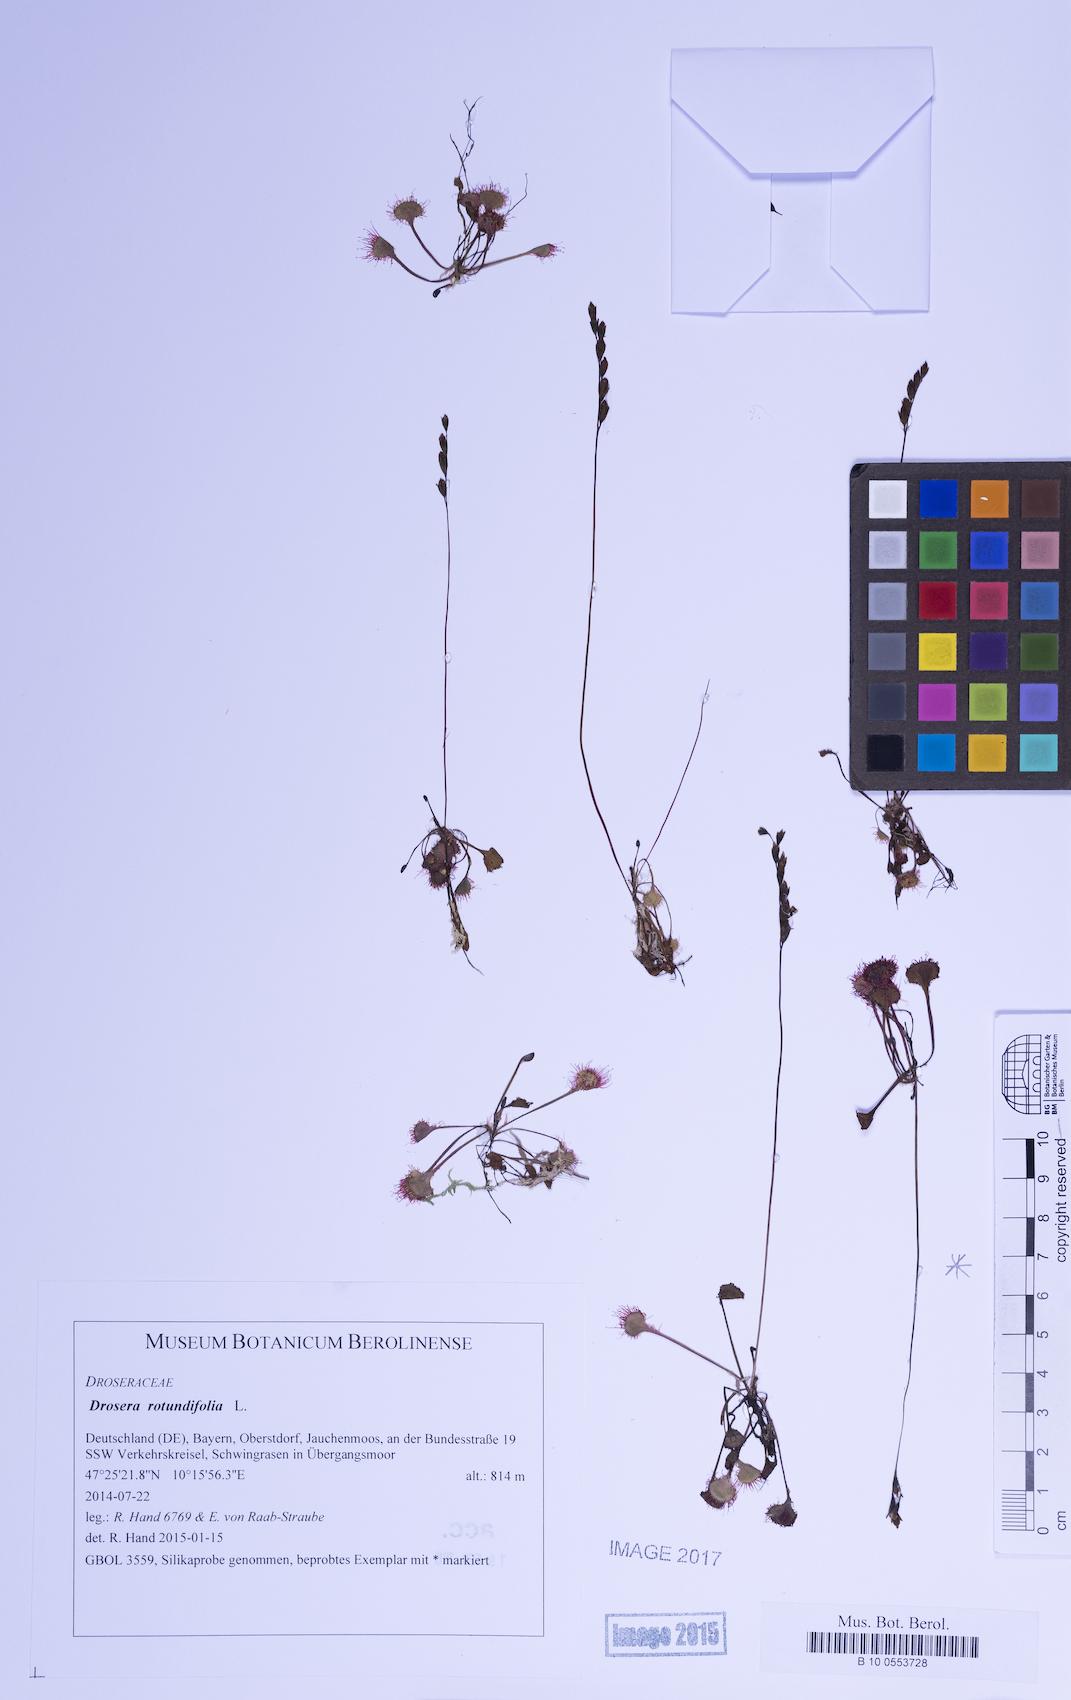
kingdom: Plantae
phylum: Tracheophyta
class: Magnoliopsida
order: Caryophyllales
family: Droseraceae
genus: Drosera
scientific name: Drosera rotundifolia
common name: Round-leaved sundew
